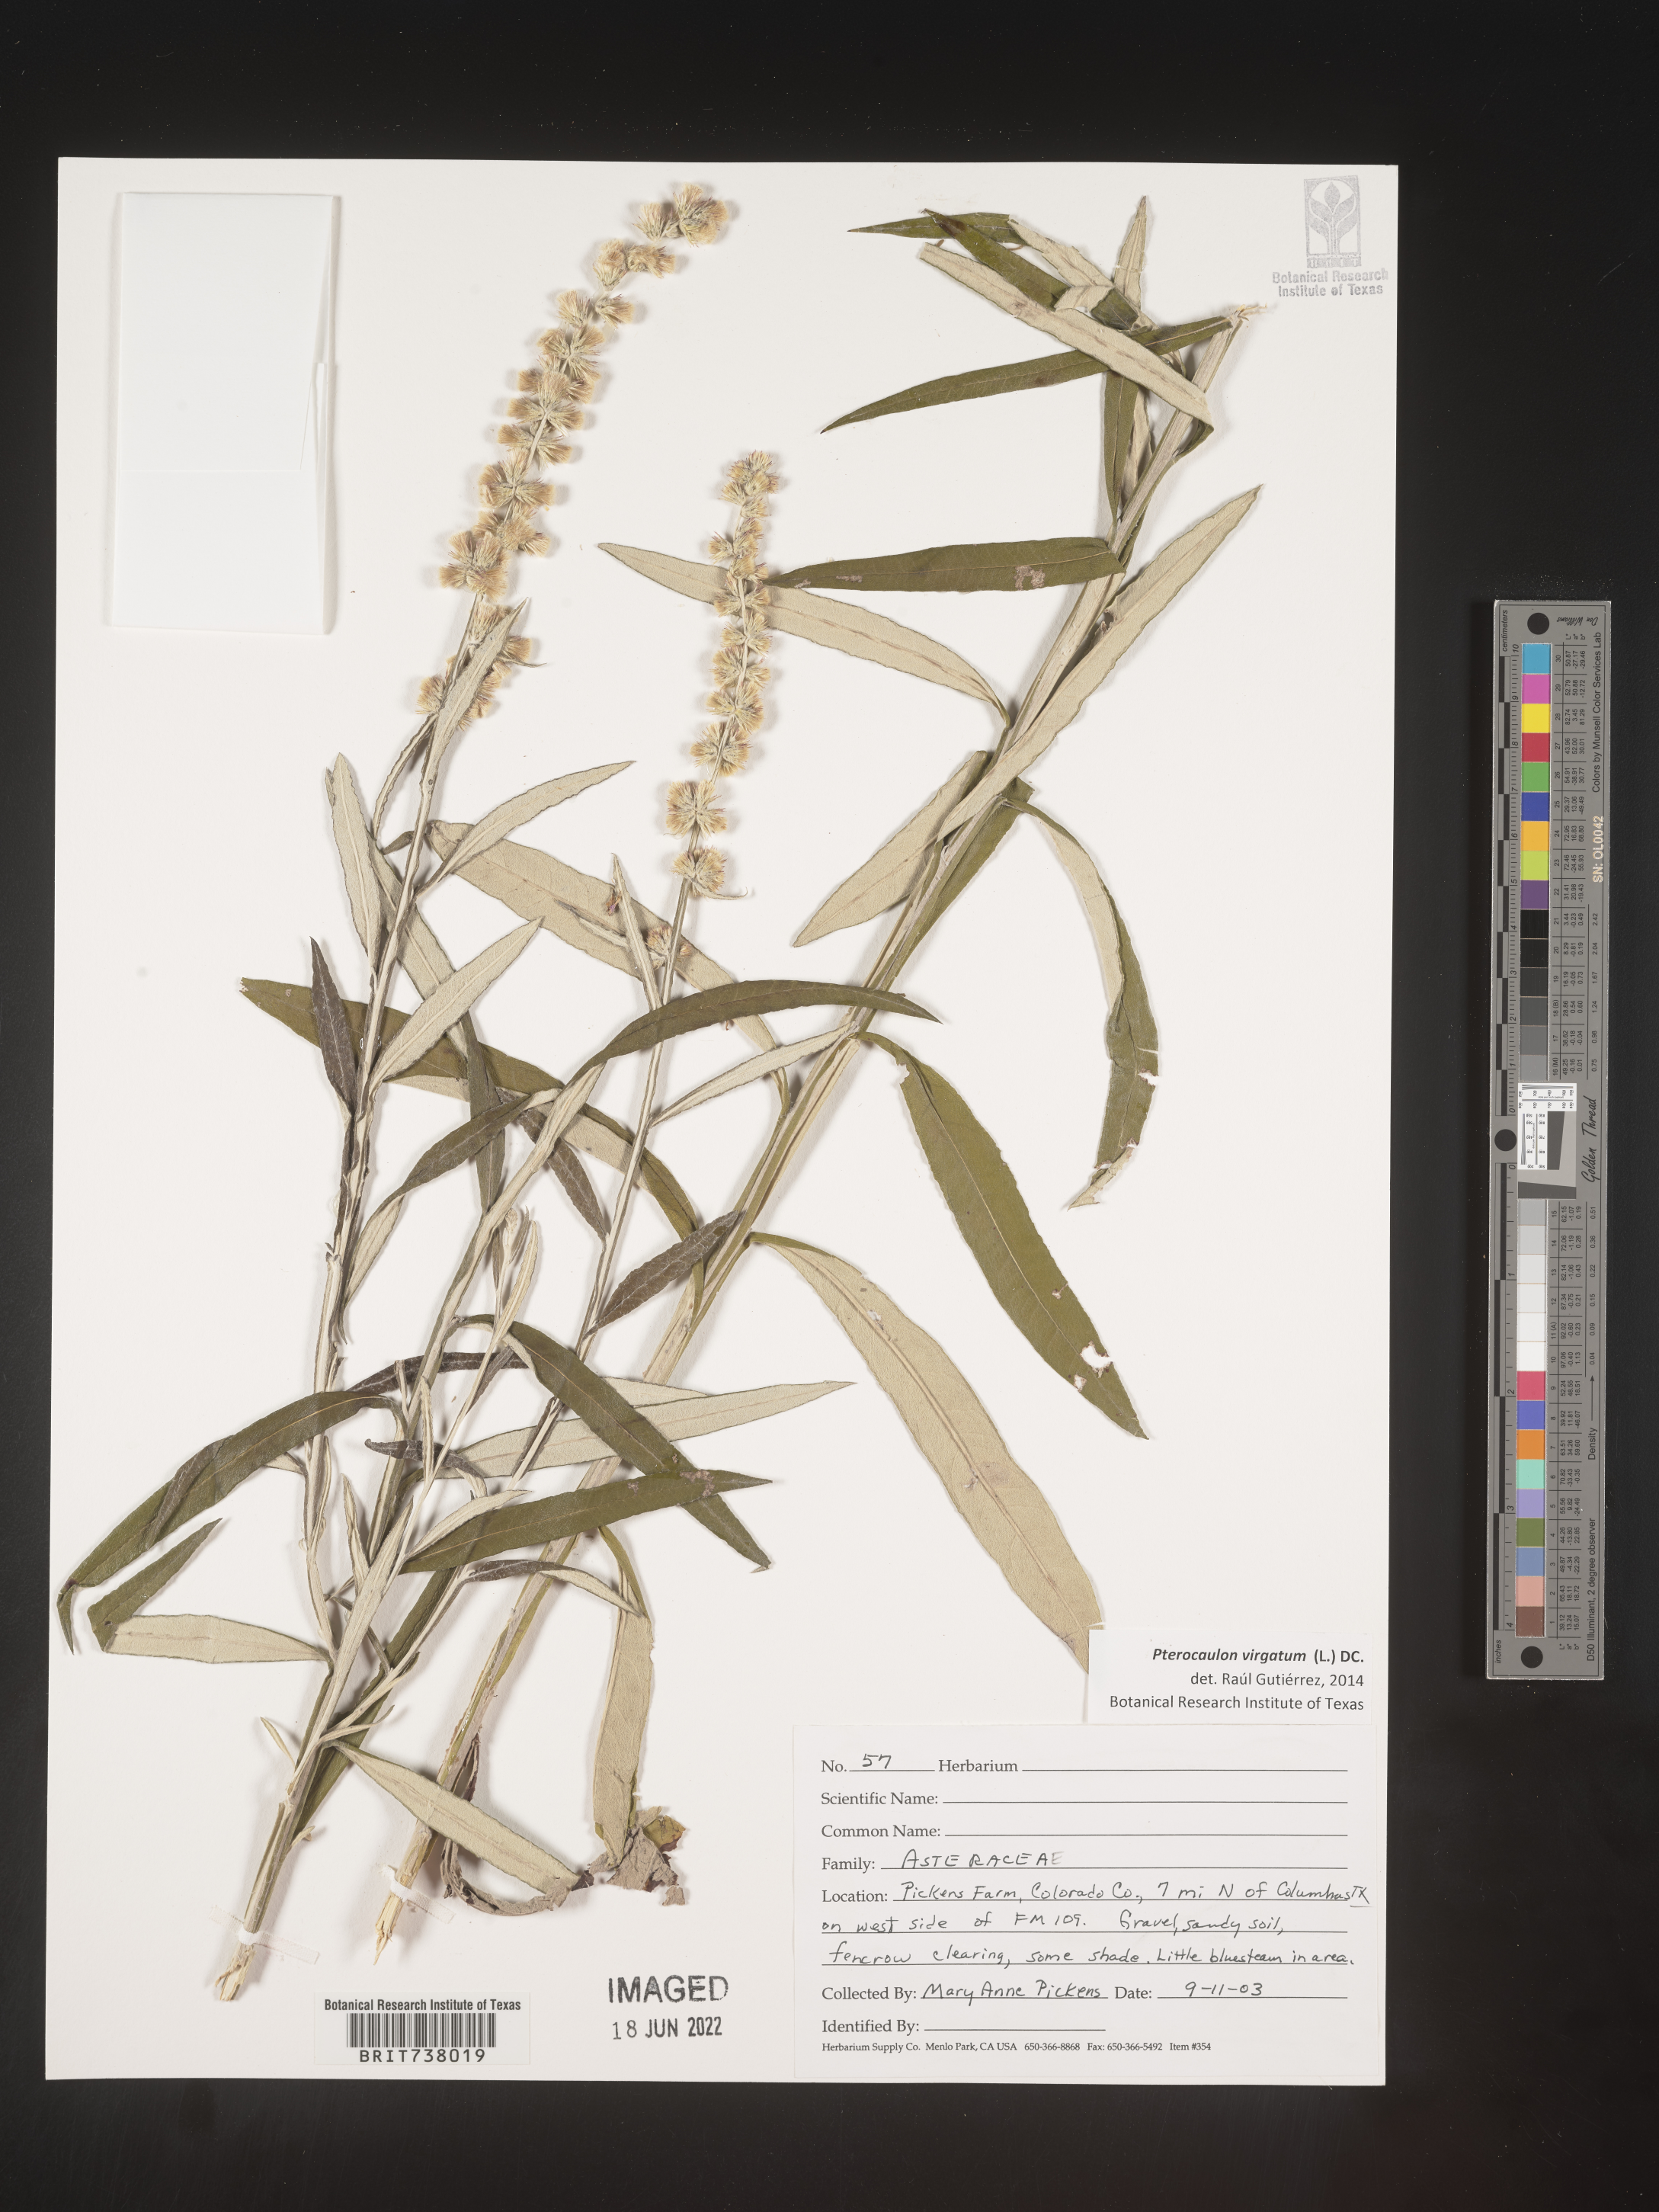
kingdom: Plantae
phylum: Tracheophyta
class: Magnoliopsida
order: Asterales
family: Asteraceae
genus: Pterocaulon
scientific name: Pterocaulon virgatum
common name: Wand blackroot
